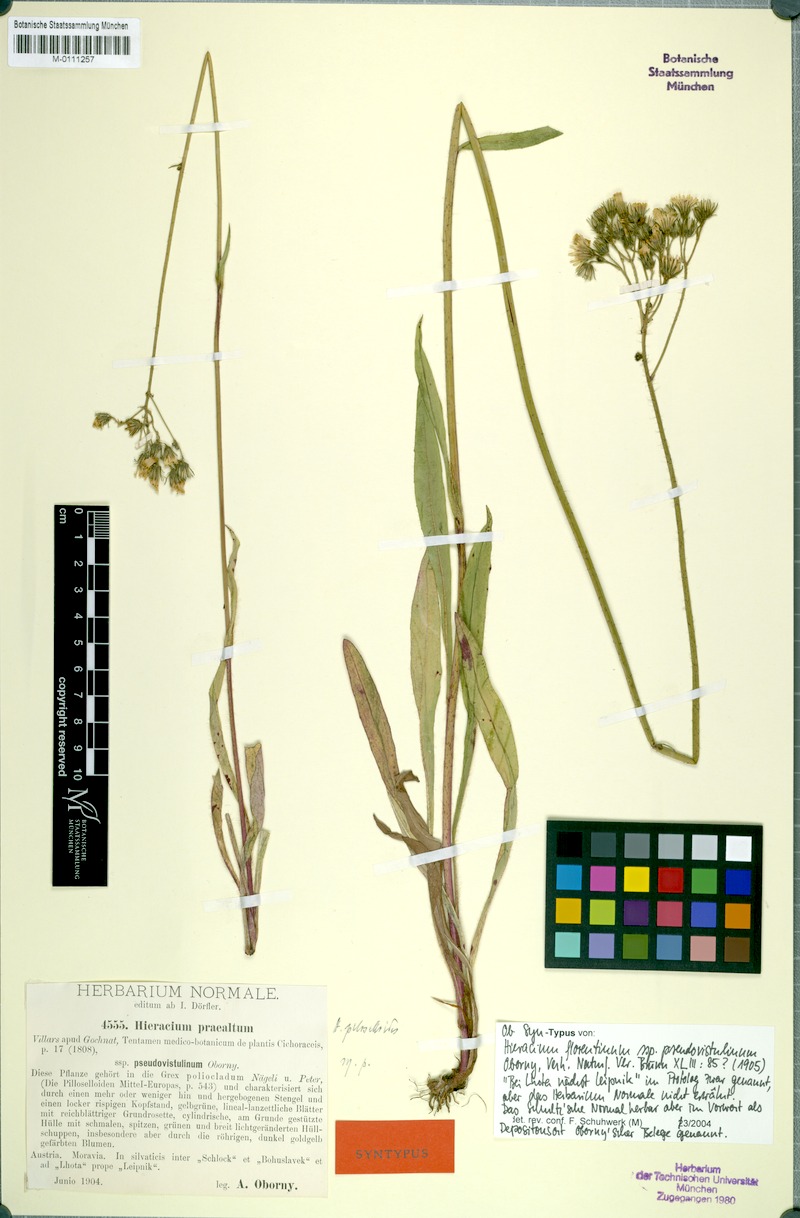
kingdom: Plantae
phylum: Tracheophyta
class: Magnoliopsida
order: Asterales
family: Asteraceae
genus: Hieracium
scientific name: Hieracium piloselloides
